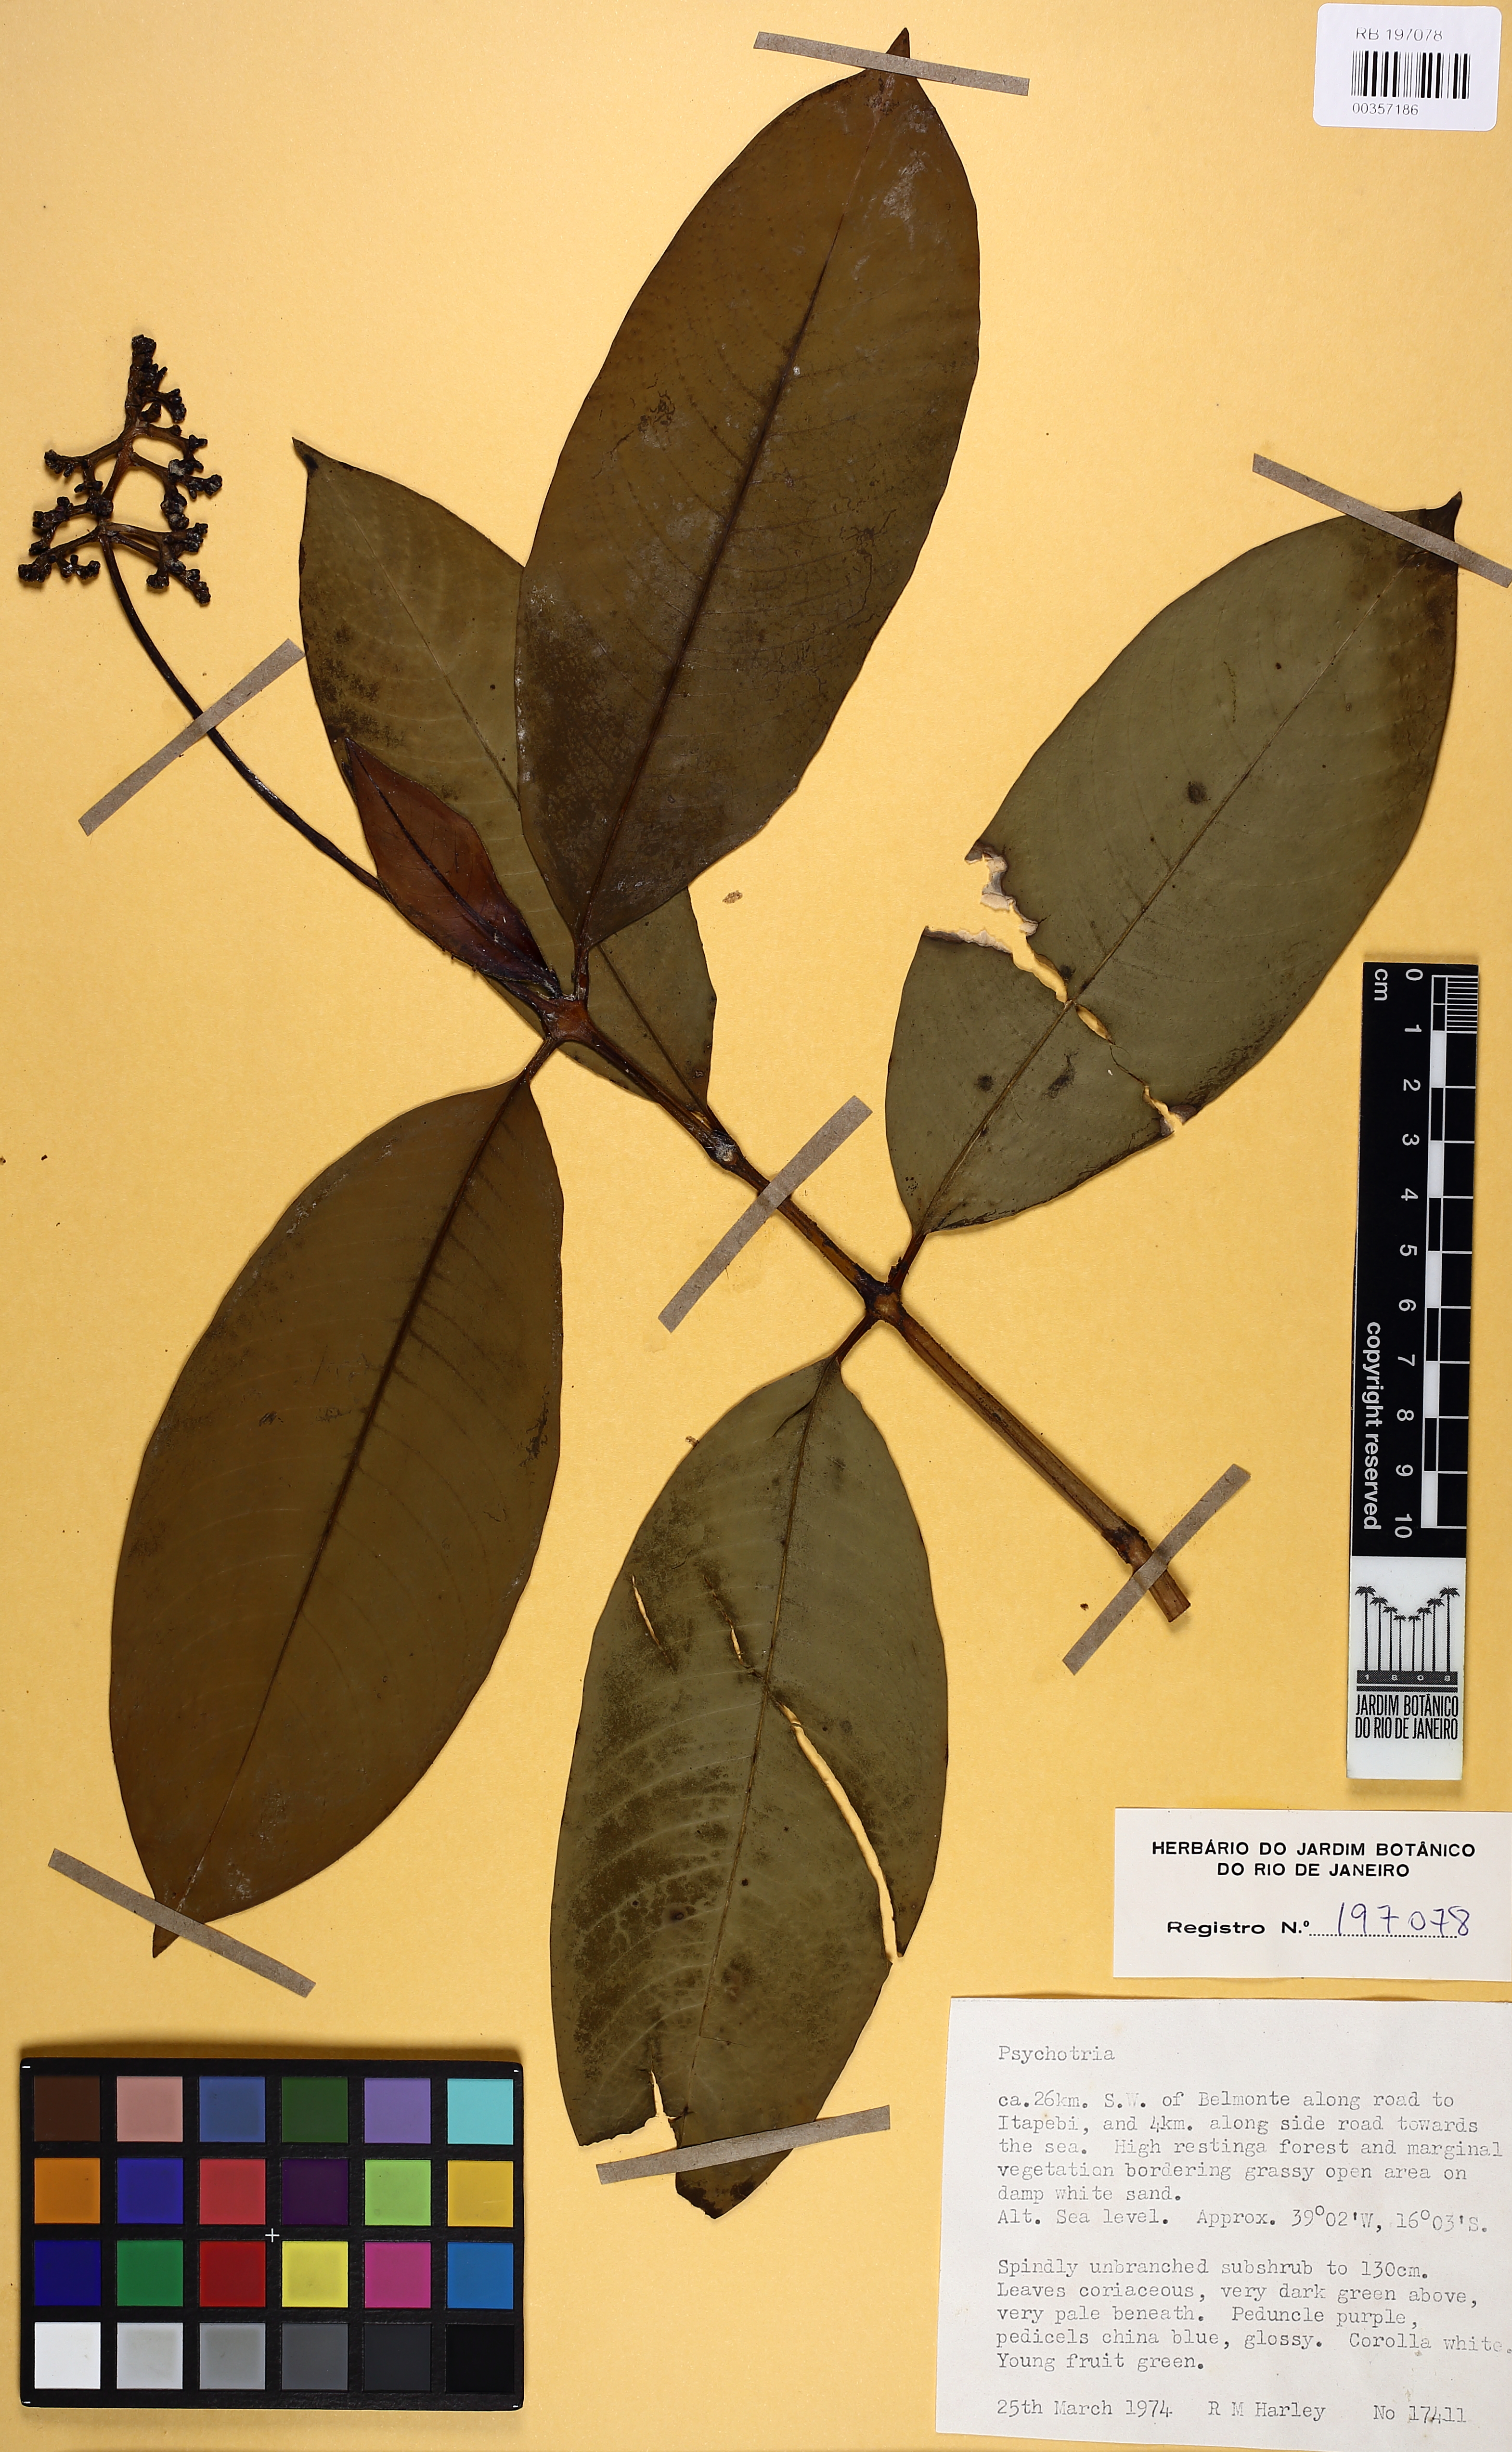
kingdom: Plantae
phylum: Tracheophyta
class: Magnoliopsida
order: Gentianales
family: Rubiaceae
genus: Psychotria
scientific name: Psychotria
